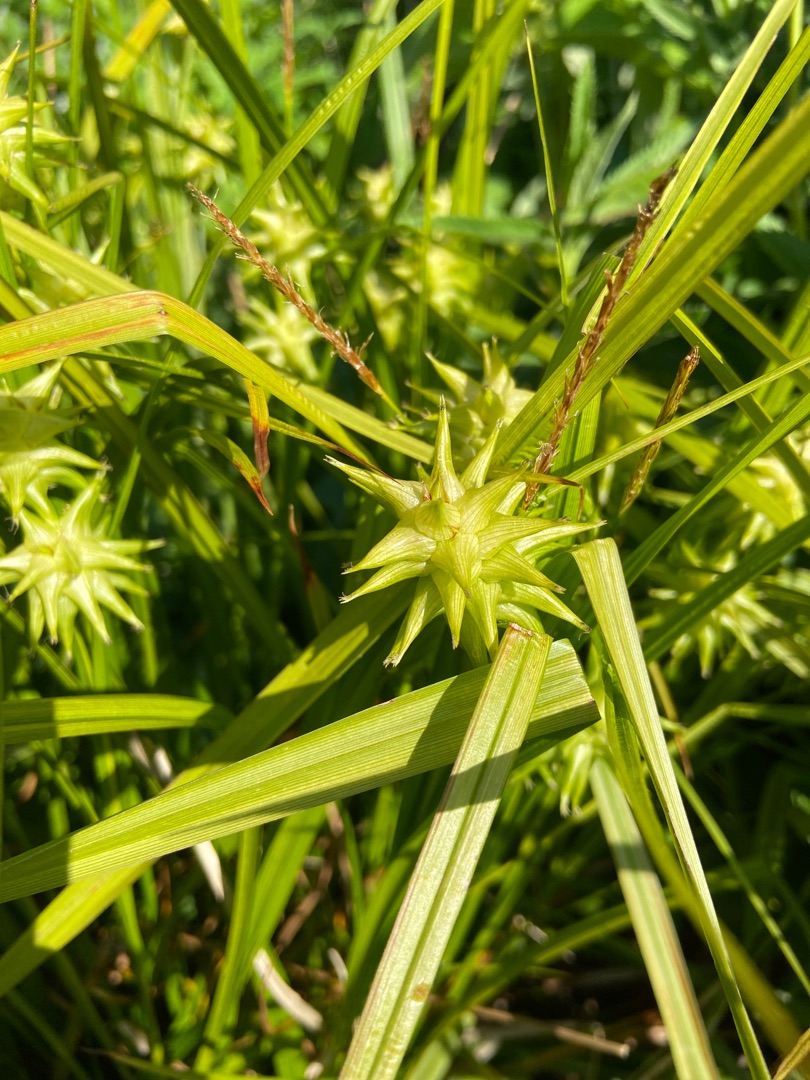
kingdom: Plantae
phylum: Tracheophyta
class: Liliopsida
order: Poales
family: Cyperaceae
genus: Carex
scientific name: Carex grayi
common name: Morgenstjerne-star
